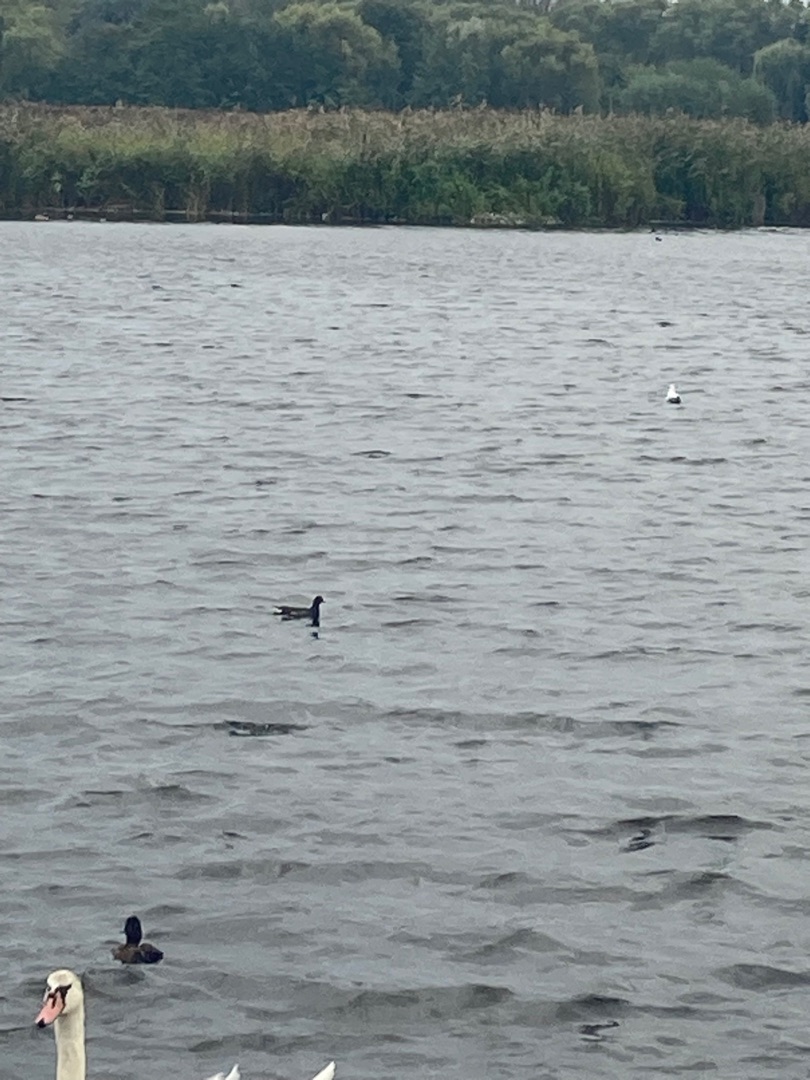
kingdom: Animalia
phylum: Chordata
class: Aves
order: Gruiformes
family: Rallidae
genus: Gallinula
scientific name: Gallinula chloropus
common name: Grønbenet rørhøne
